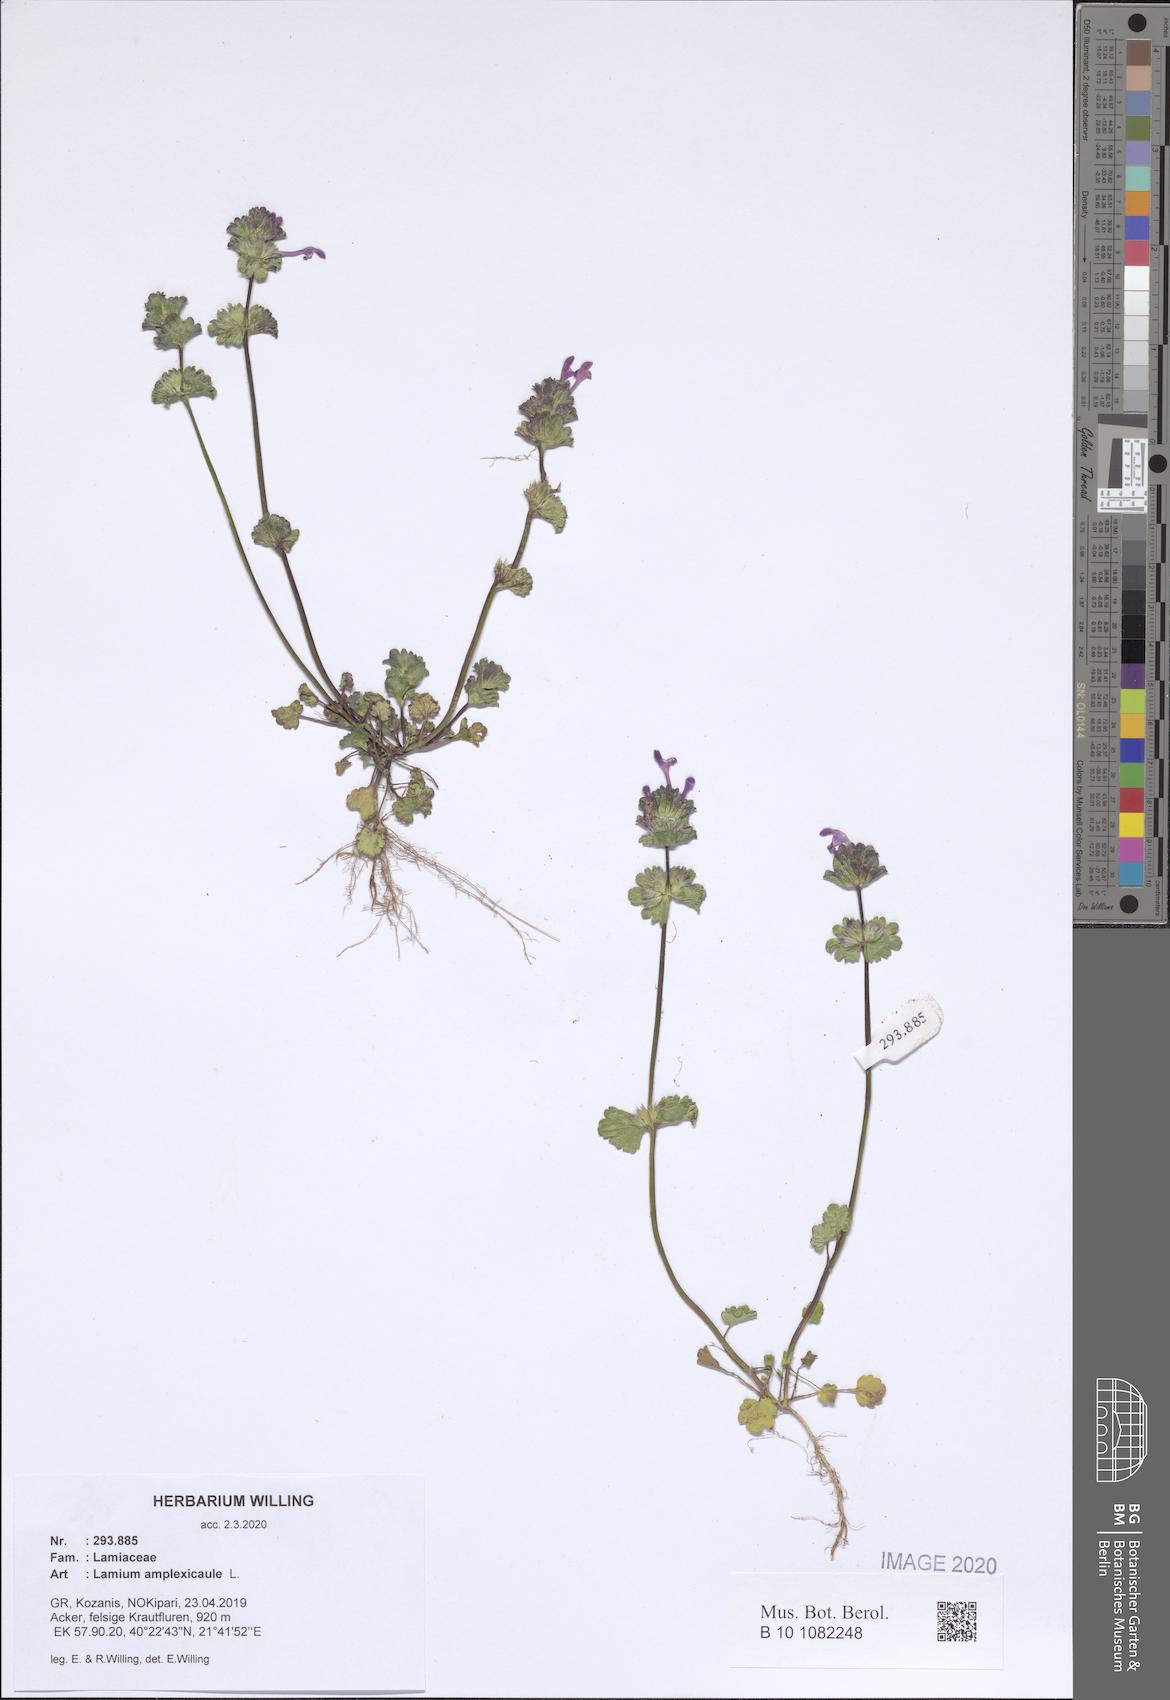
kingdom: Plantae
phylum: Tracheophyta
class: Magnoliopsida
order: Lamiales
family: Lamiaceae
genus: Lamium
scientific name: Lamium amplexicaule
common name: Henbit dead-nettle
